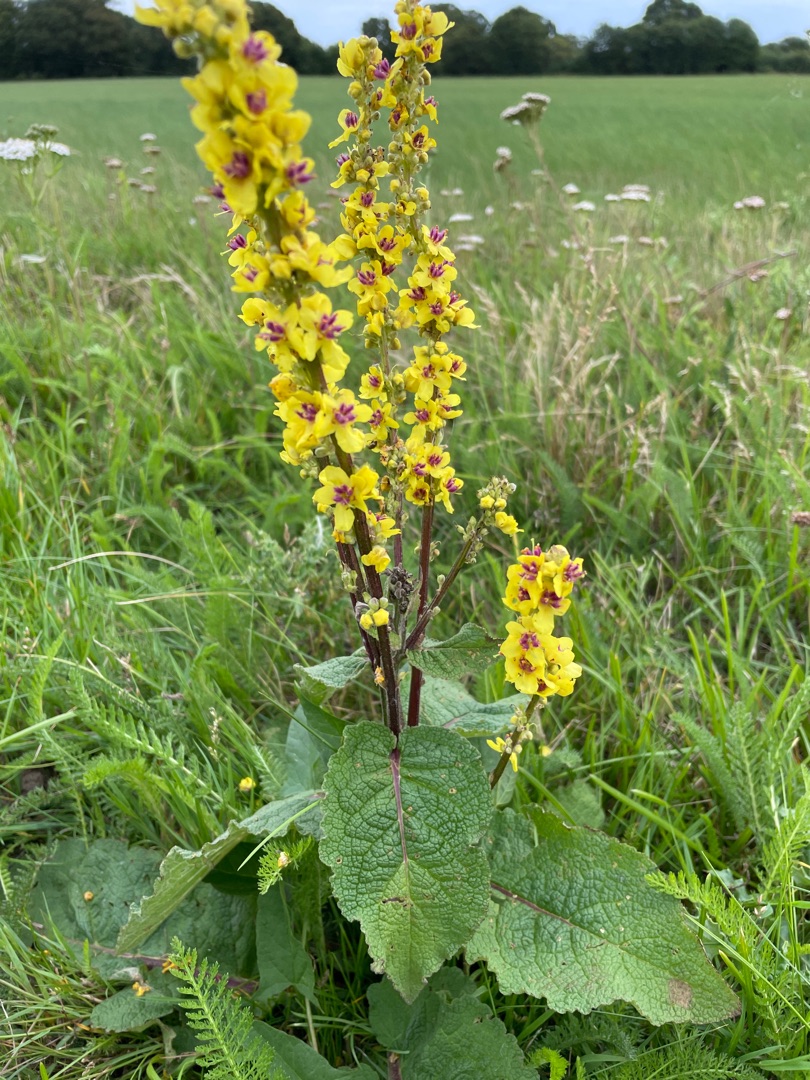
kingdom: Plantae
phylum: Tracheophyta
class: Magnoliopsida
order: Lamiales
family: Scrophulariaceae
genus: Verbascum
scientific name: Verbascum nigrum
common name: Mørk kongelys
